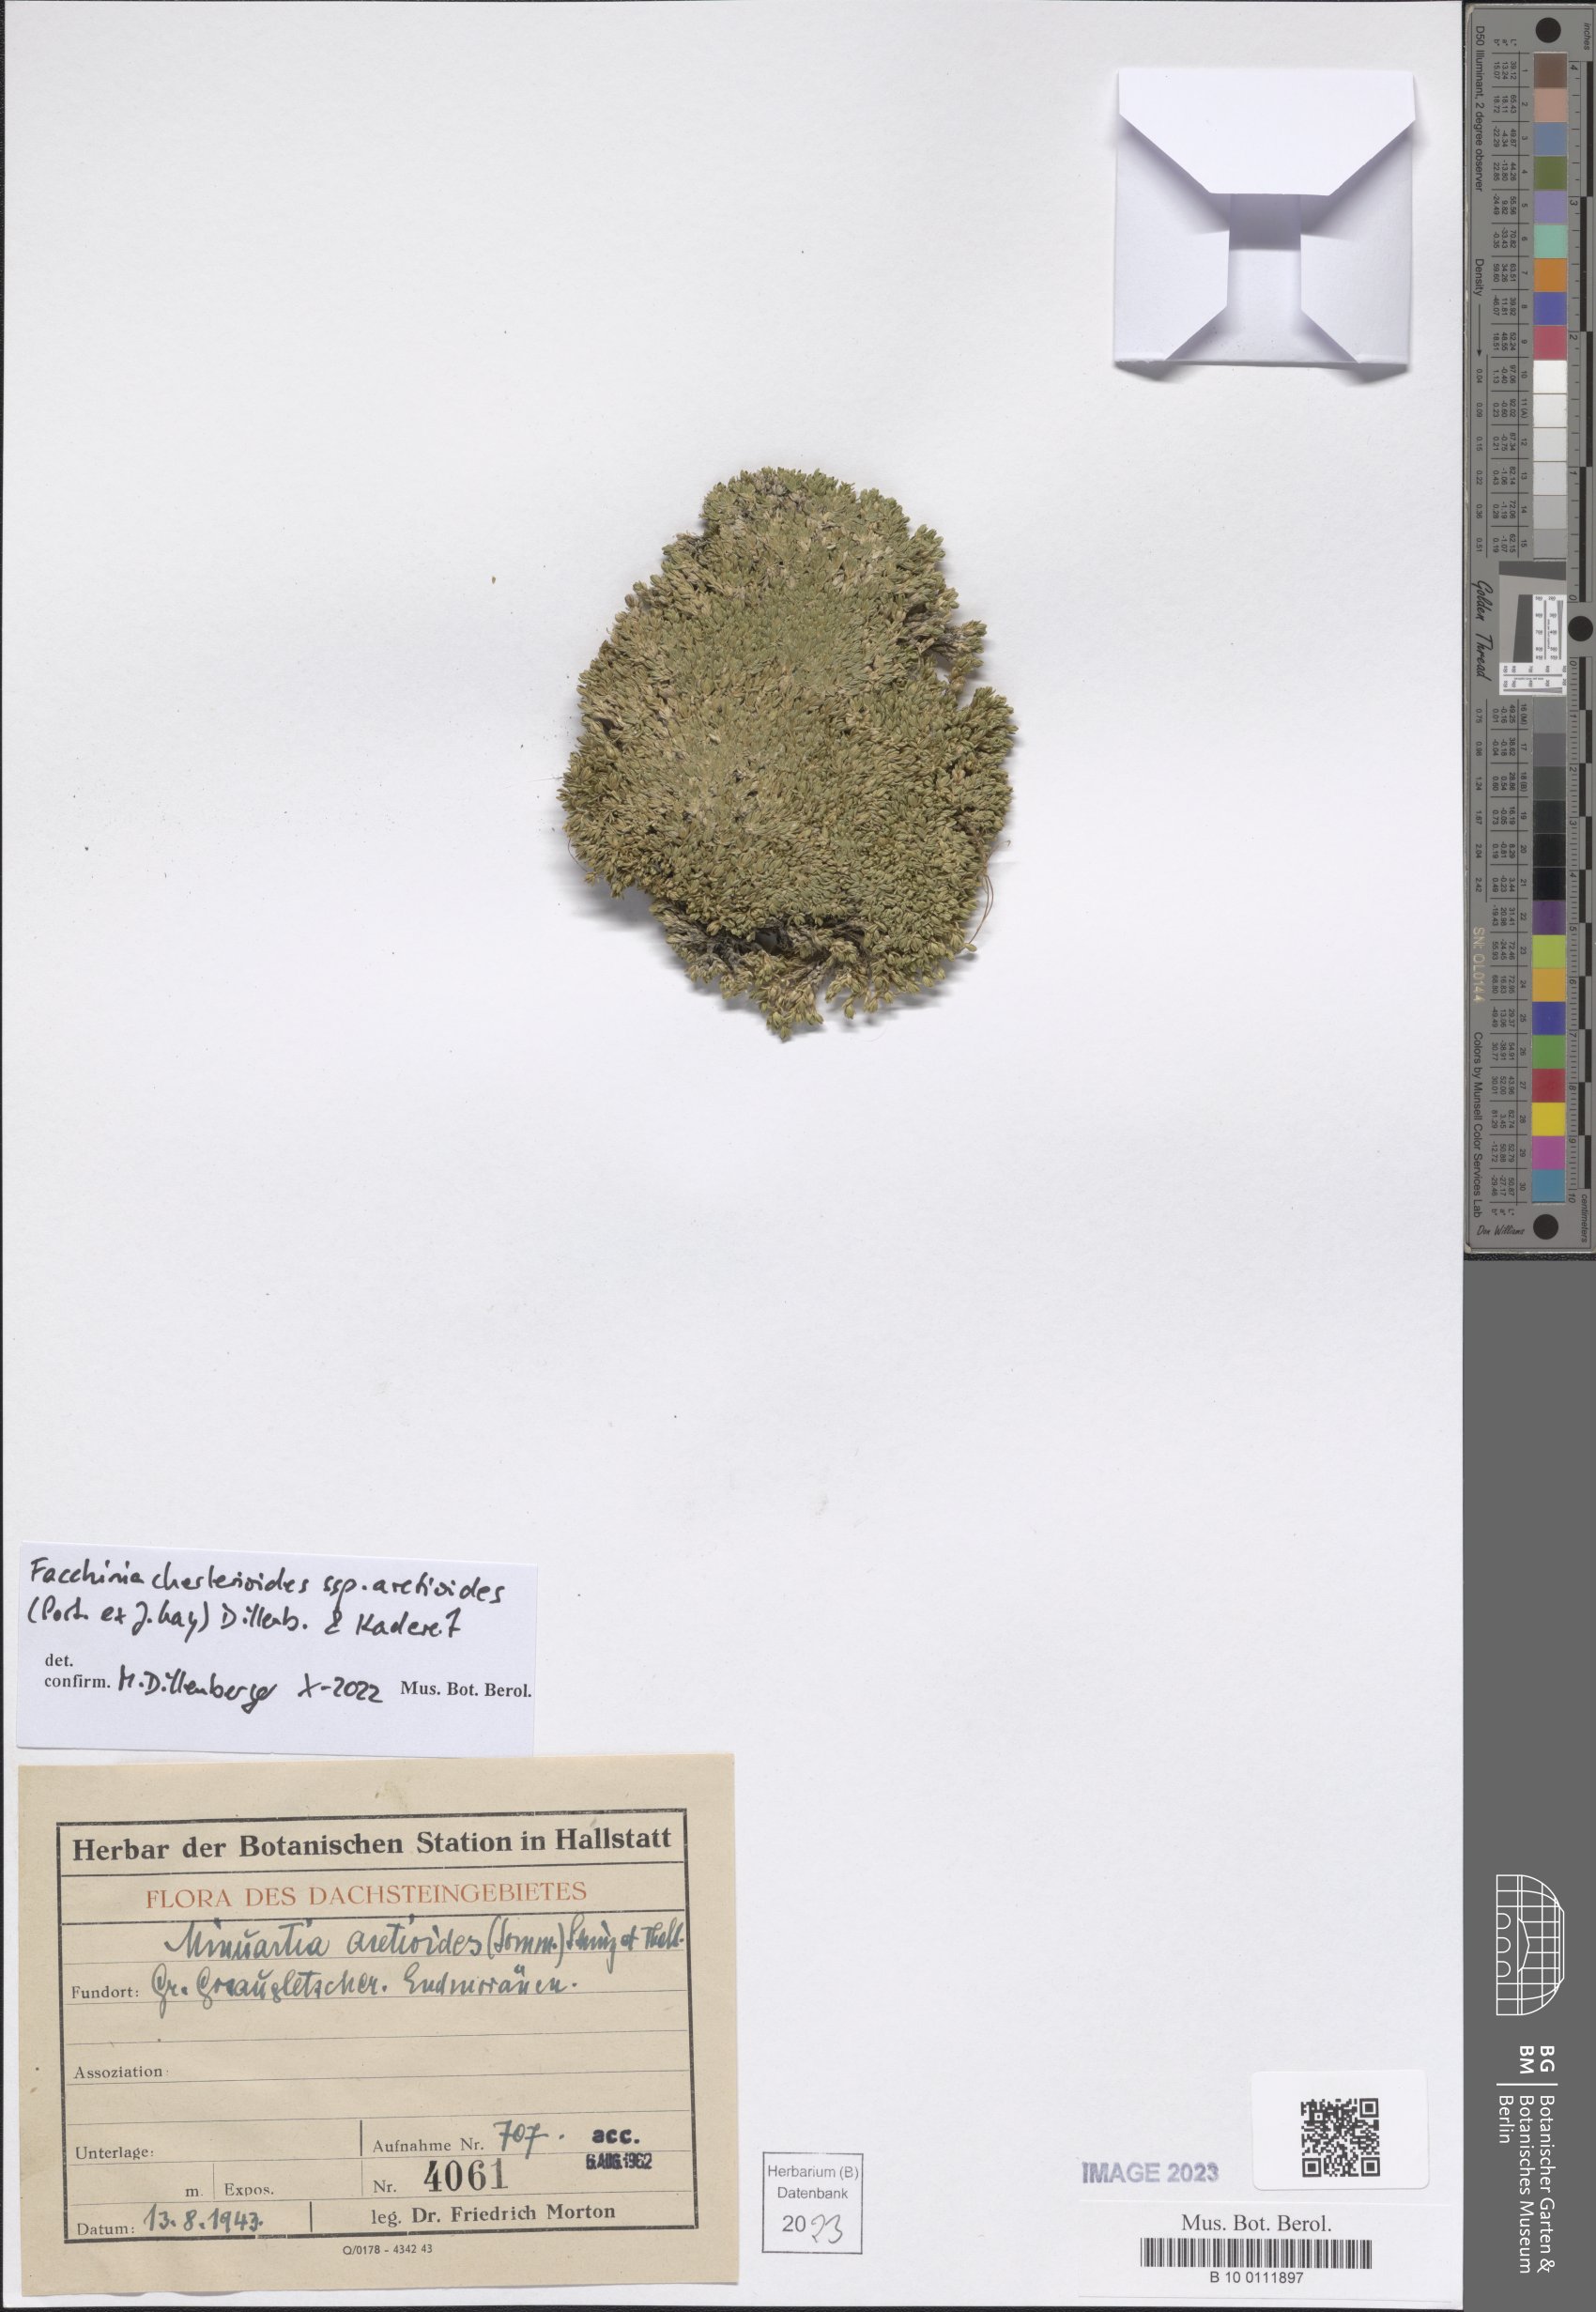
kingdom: Plantae
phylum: Tracheophyta
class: Magnoliopsida
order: Caryophyllales
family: Caryophyllaceae
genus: Facchinia
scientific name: Facchinia cherlerioides
